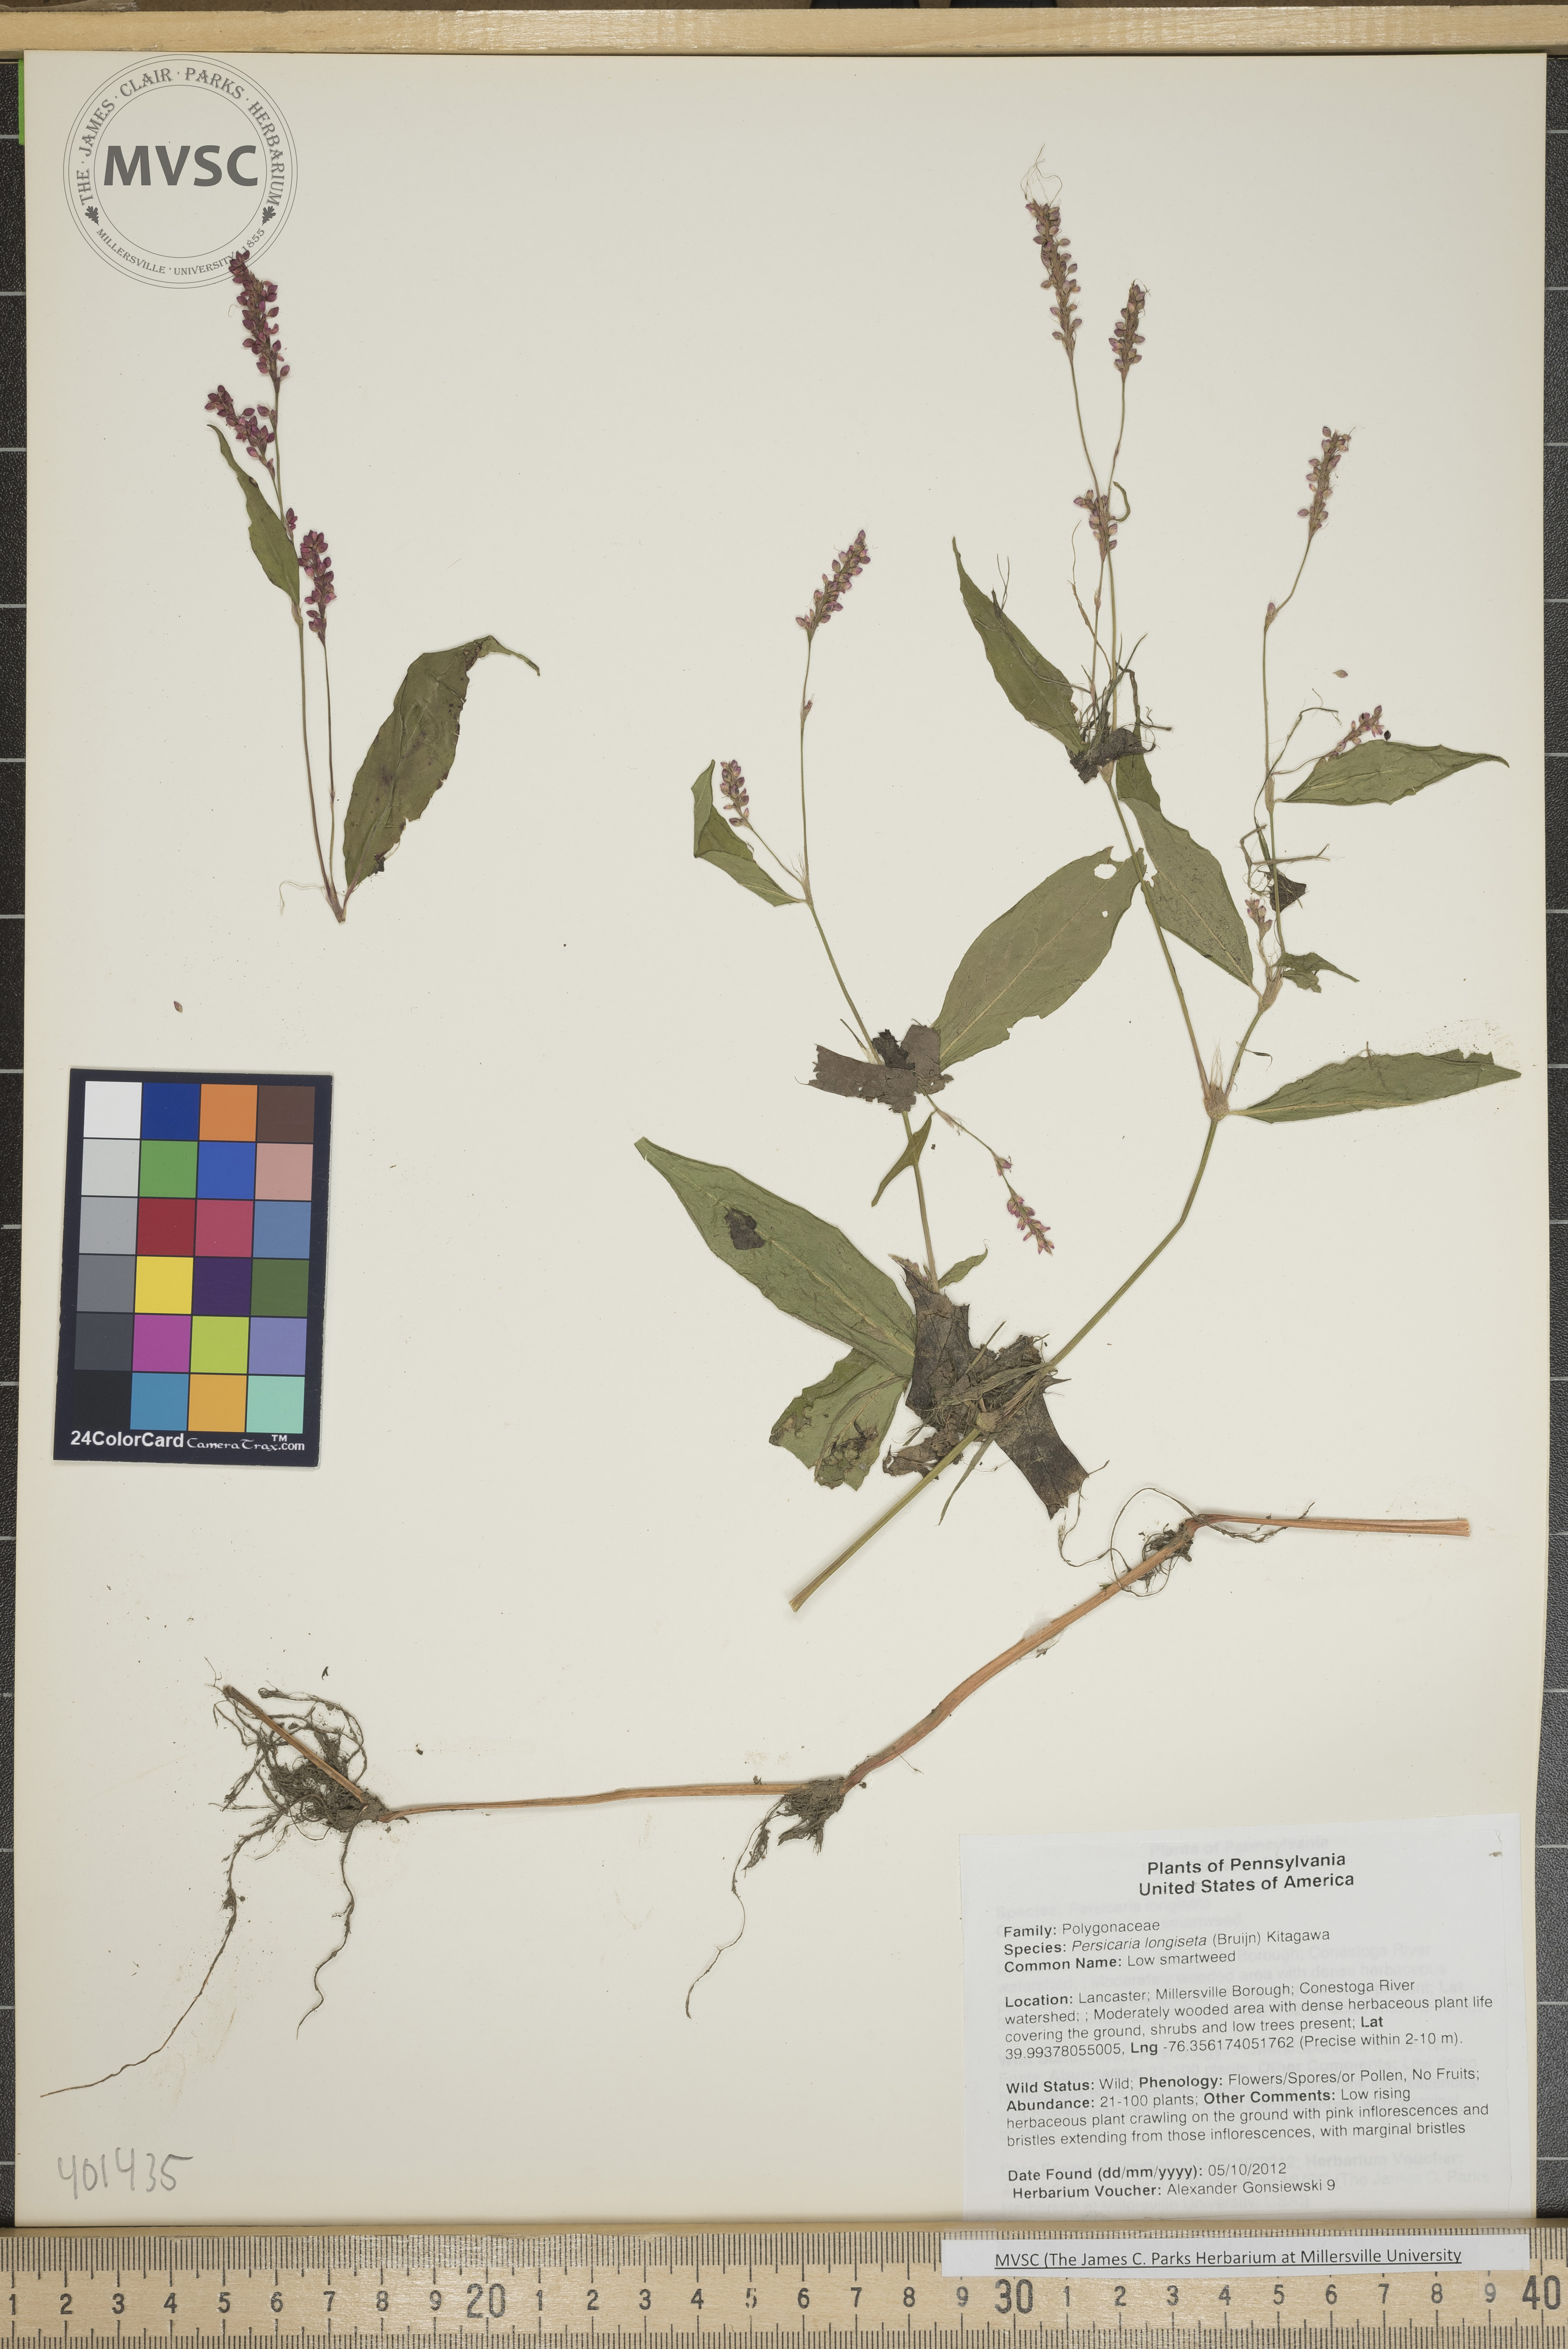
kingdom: Plantae
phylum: Tracheophyta
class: Magnoliopsida
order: Caryophyllales
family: Polygonaceae
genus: Persicaria
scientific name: Persicaria longiseta
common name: Low smartweed
